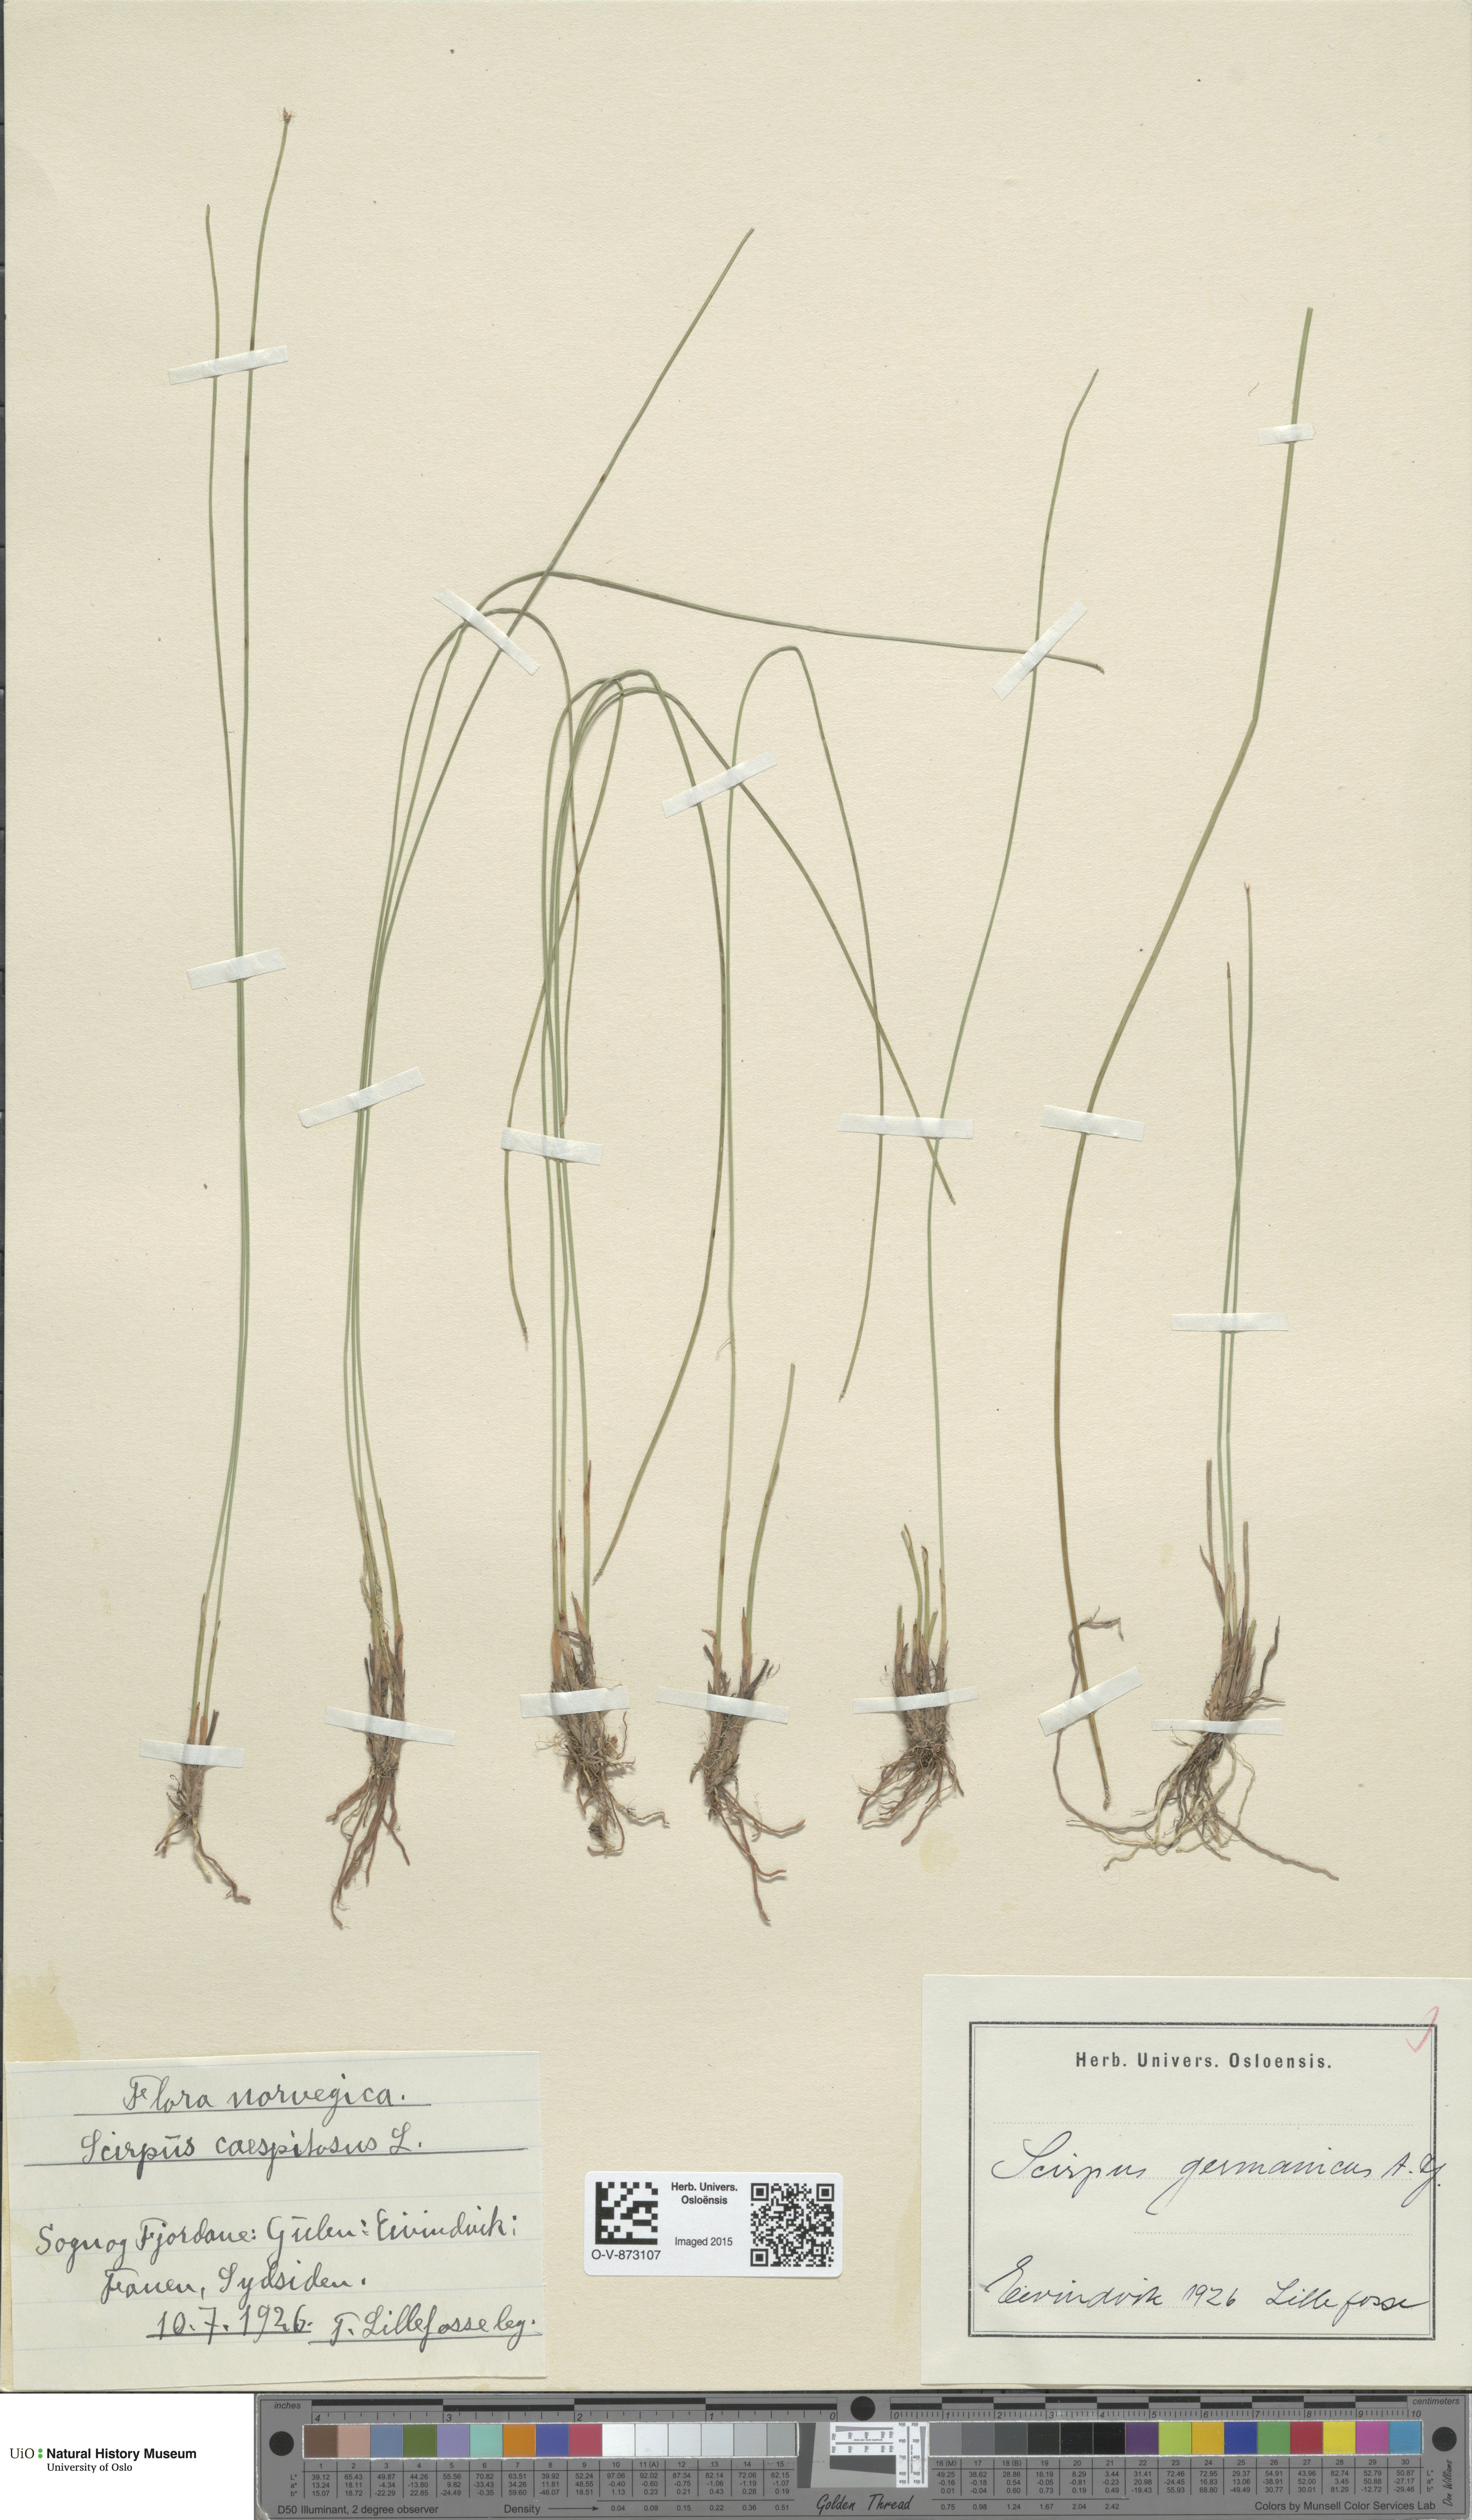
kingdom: Plantae
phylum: Tracheophyta
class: Liliopsida
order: Poales
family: Cyperaceae
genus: Trichophorum
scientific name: Trichophorum cespitosum
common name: Cespitose bulrush
